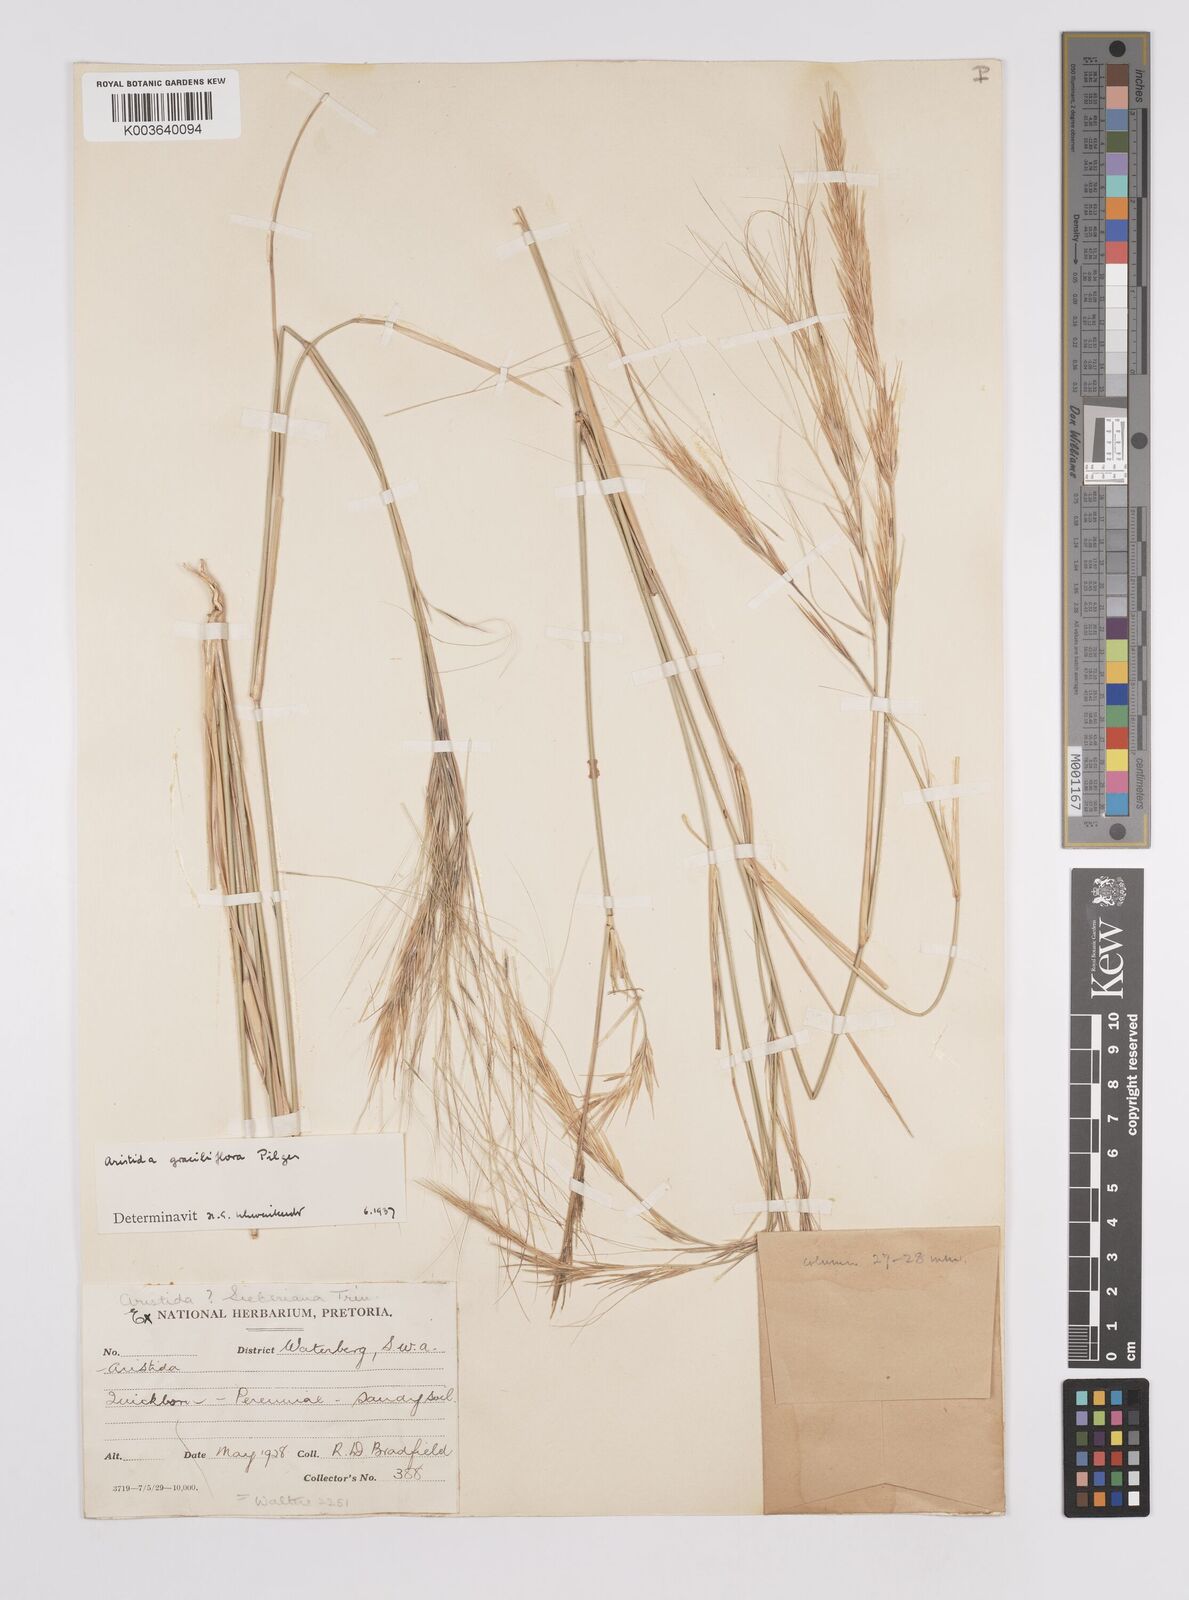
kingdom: Plantae
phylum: Tracheophyta
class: Liliopsida
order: Poales
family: Poaceae
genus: Aristida
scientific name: Aristida stipitata
